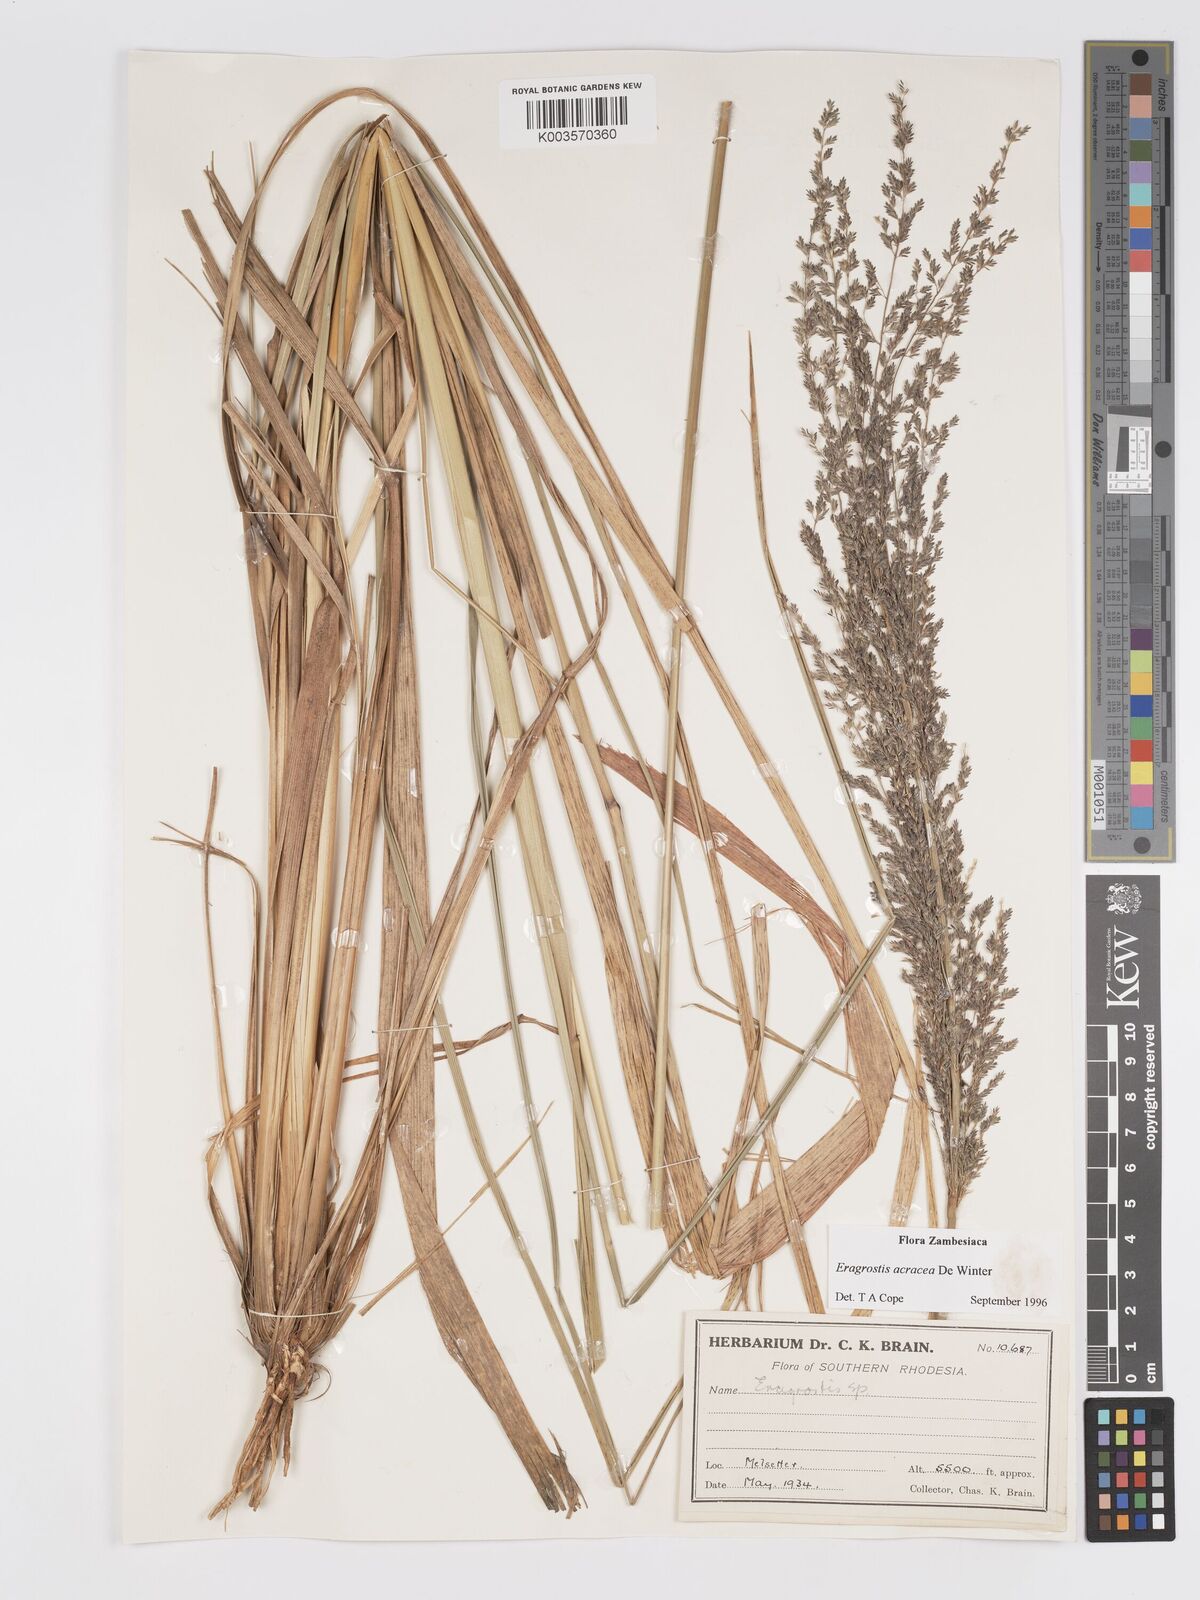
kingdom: Plantae
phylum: Tracheophyta
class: Liliopsida
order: Poales
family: Poaceae
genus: Eragrostis
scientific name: Eragrostis acraea
